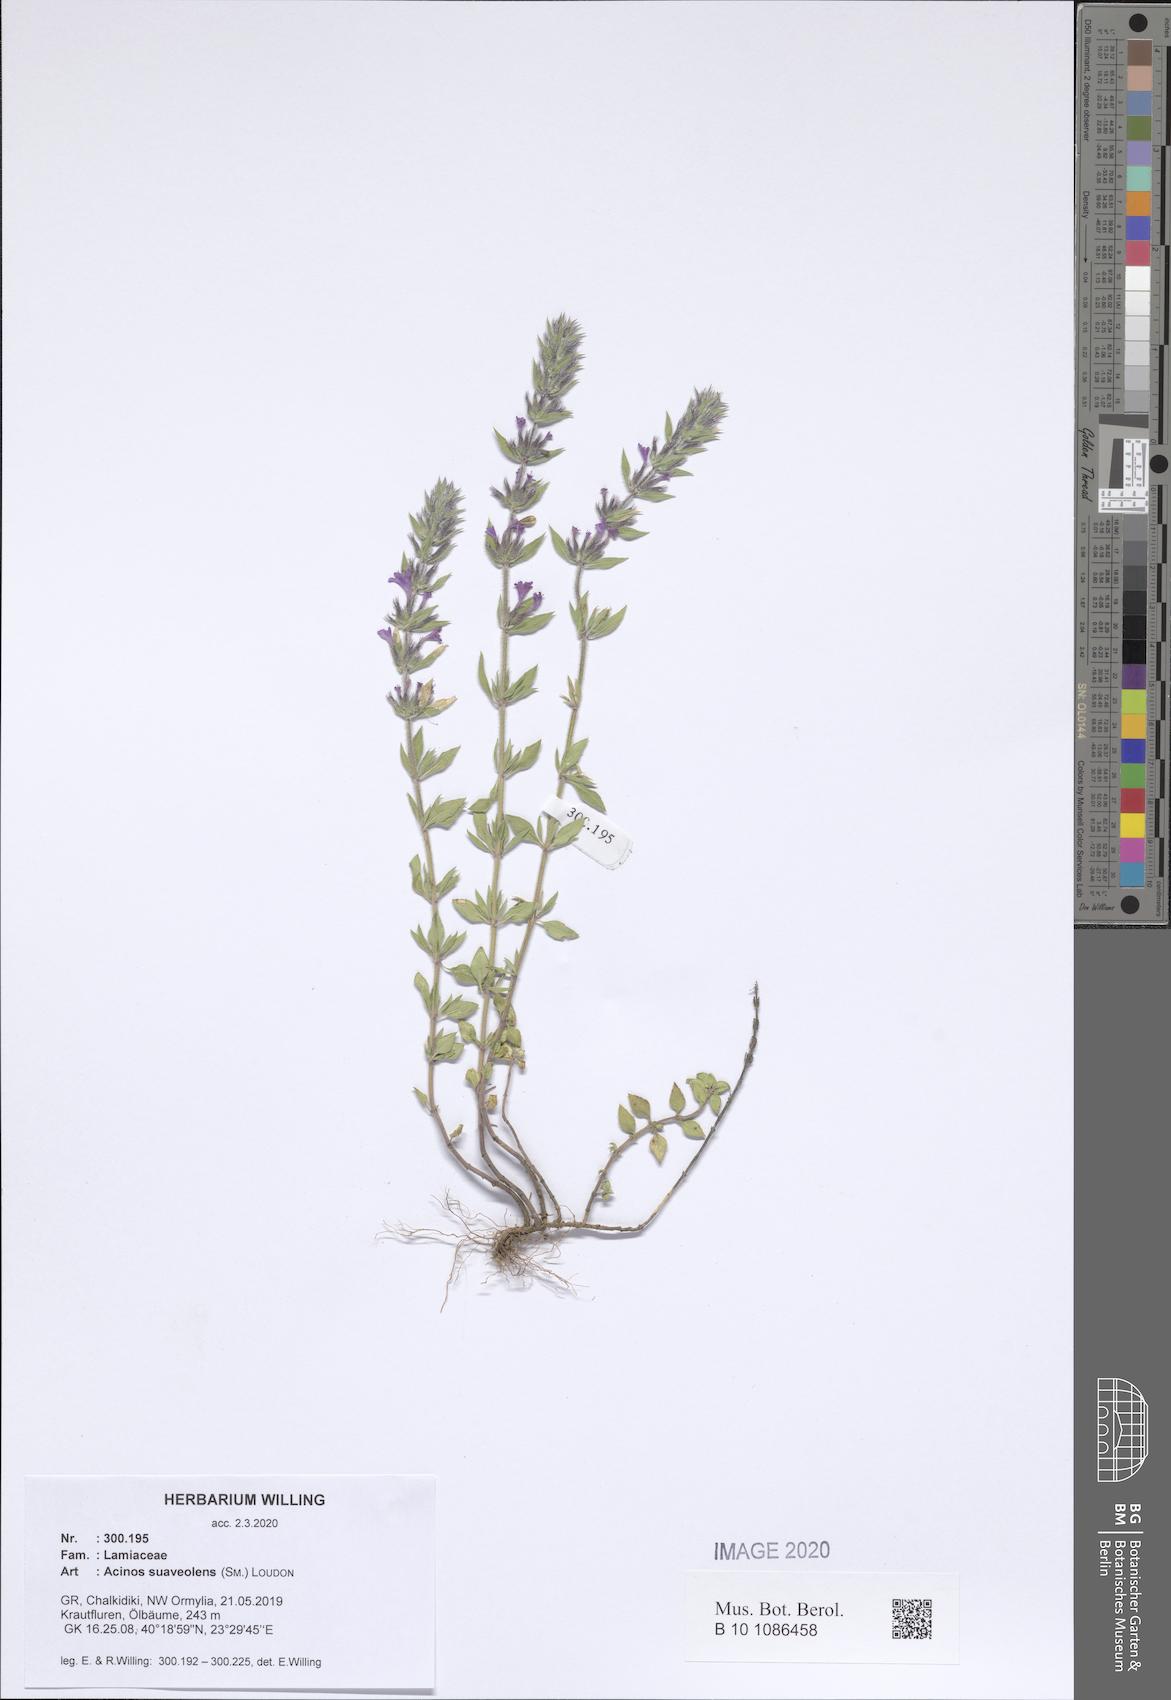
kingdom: Plantae
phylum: Tracheophyta
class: Magnoliopsida
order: Lamiales
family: Lamiaceae
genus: Clinopodium
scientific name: Clinopodium suaveolens
